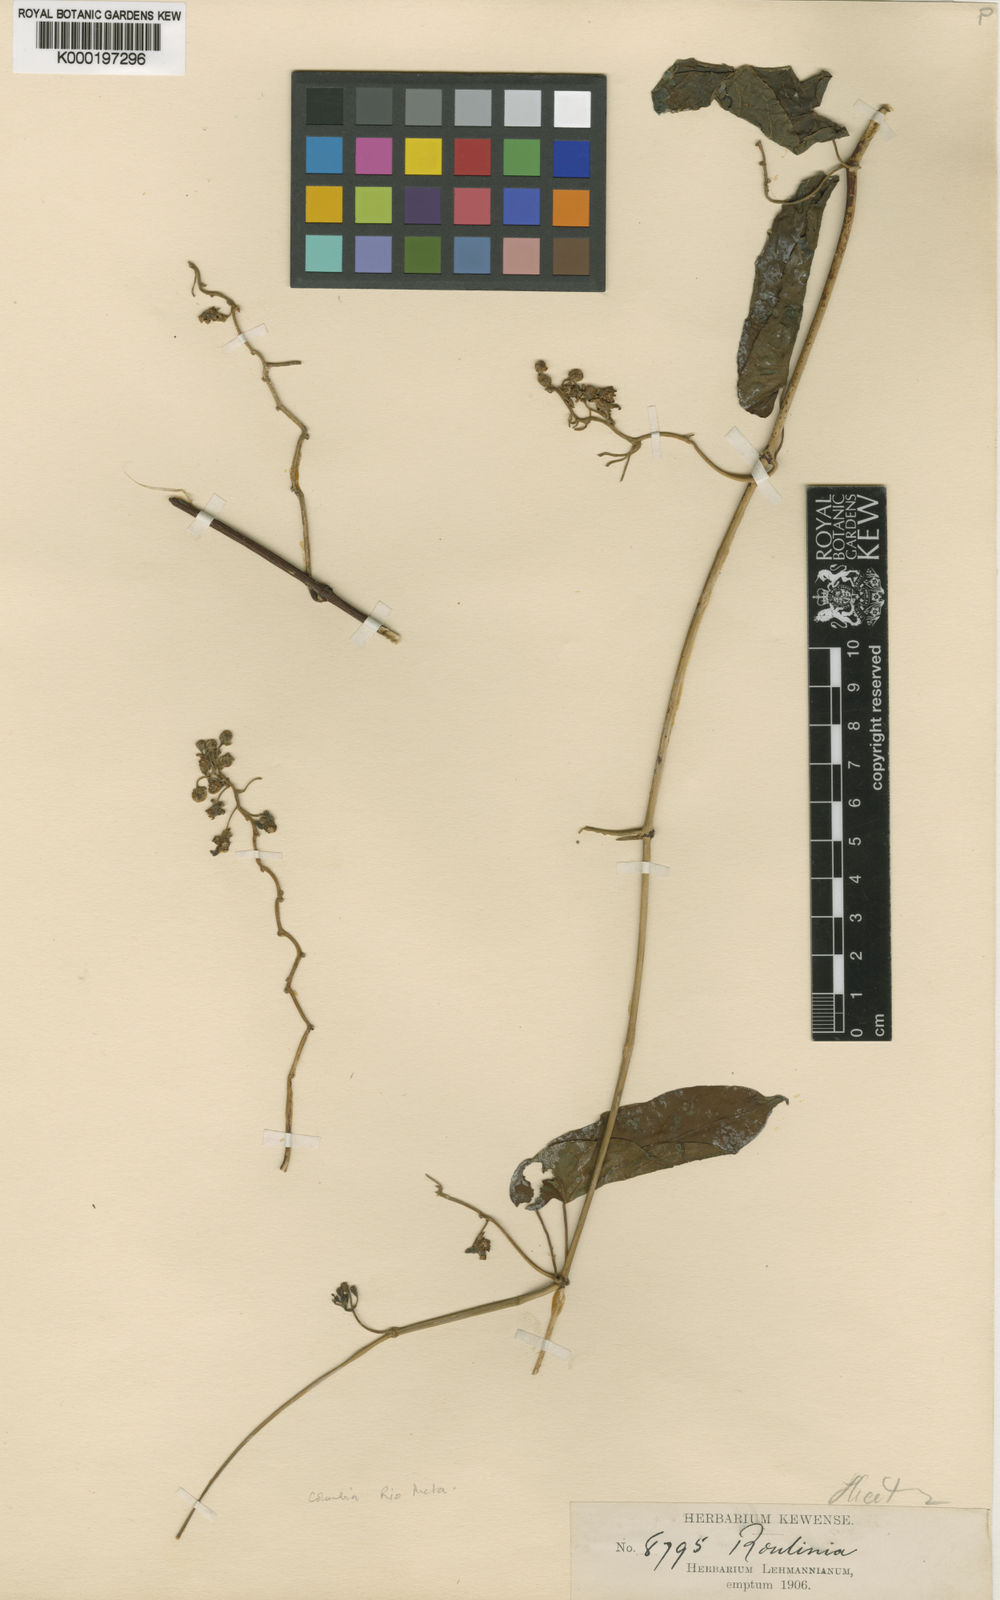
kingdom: Plantae
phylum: Tracheophyta
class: Magnoliopsida
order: Gentianales
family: Apocynaceae
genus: Cynanchum
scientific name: Cynanchum riometense
